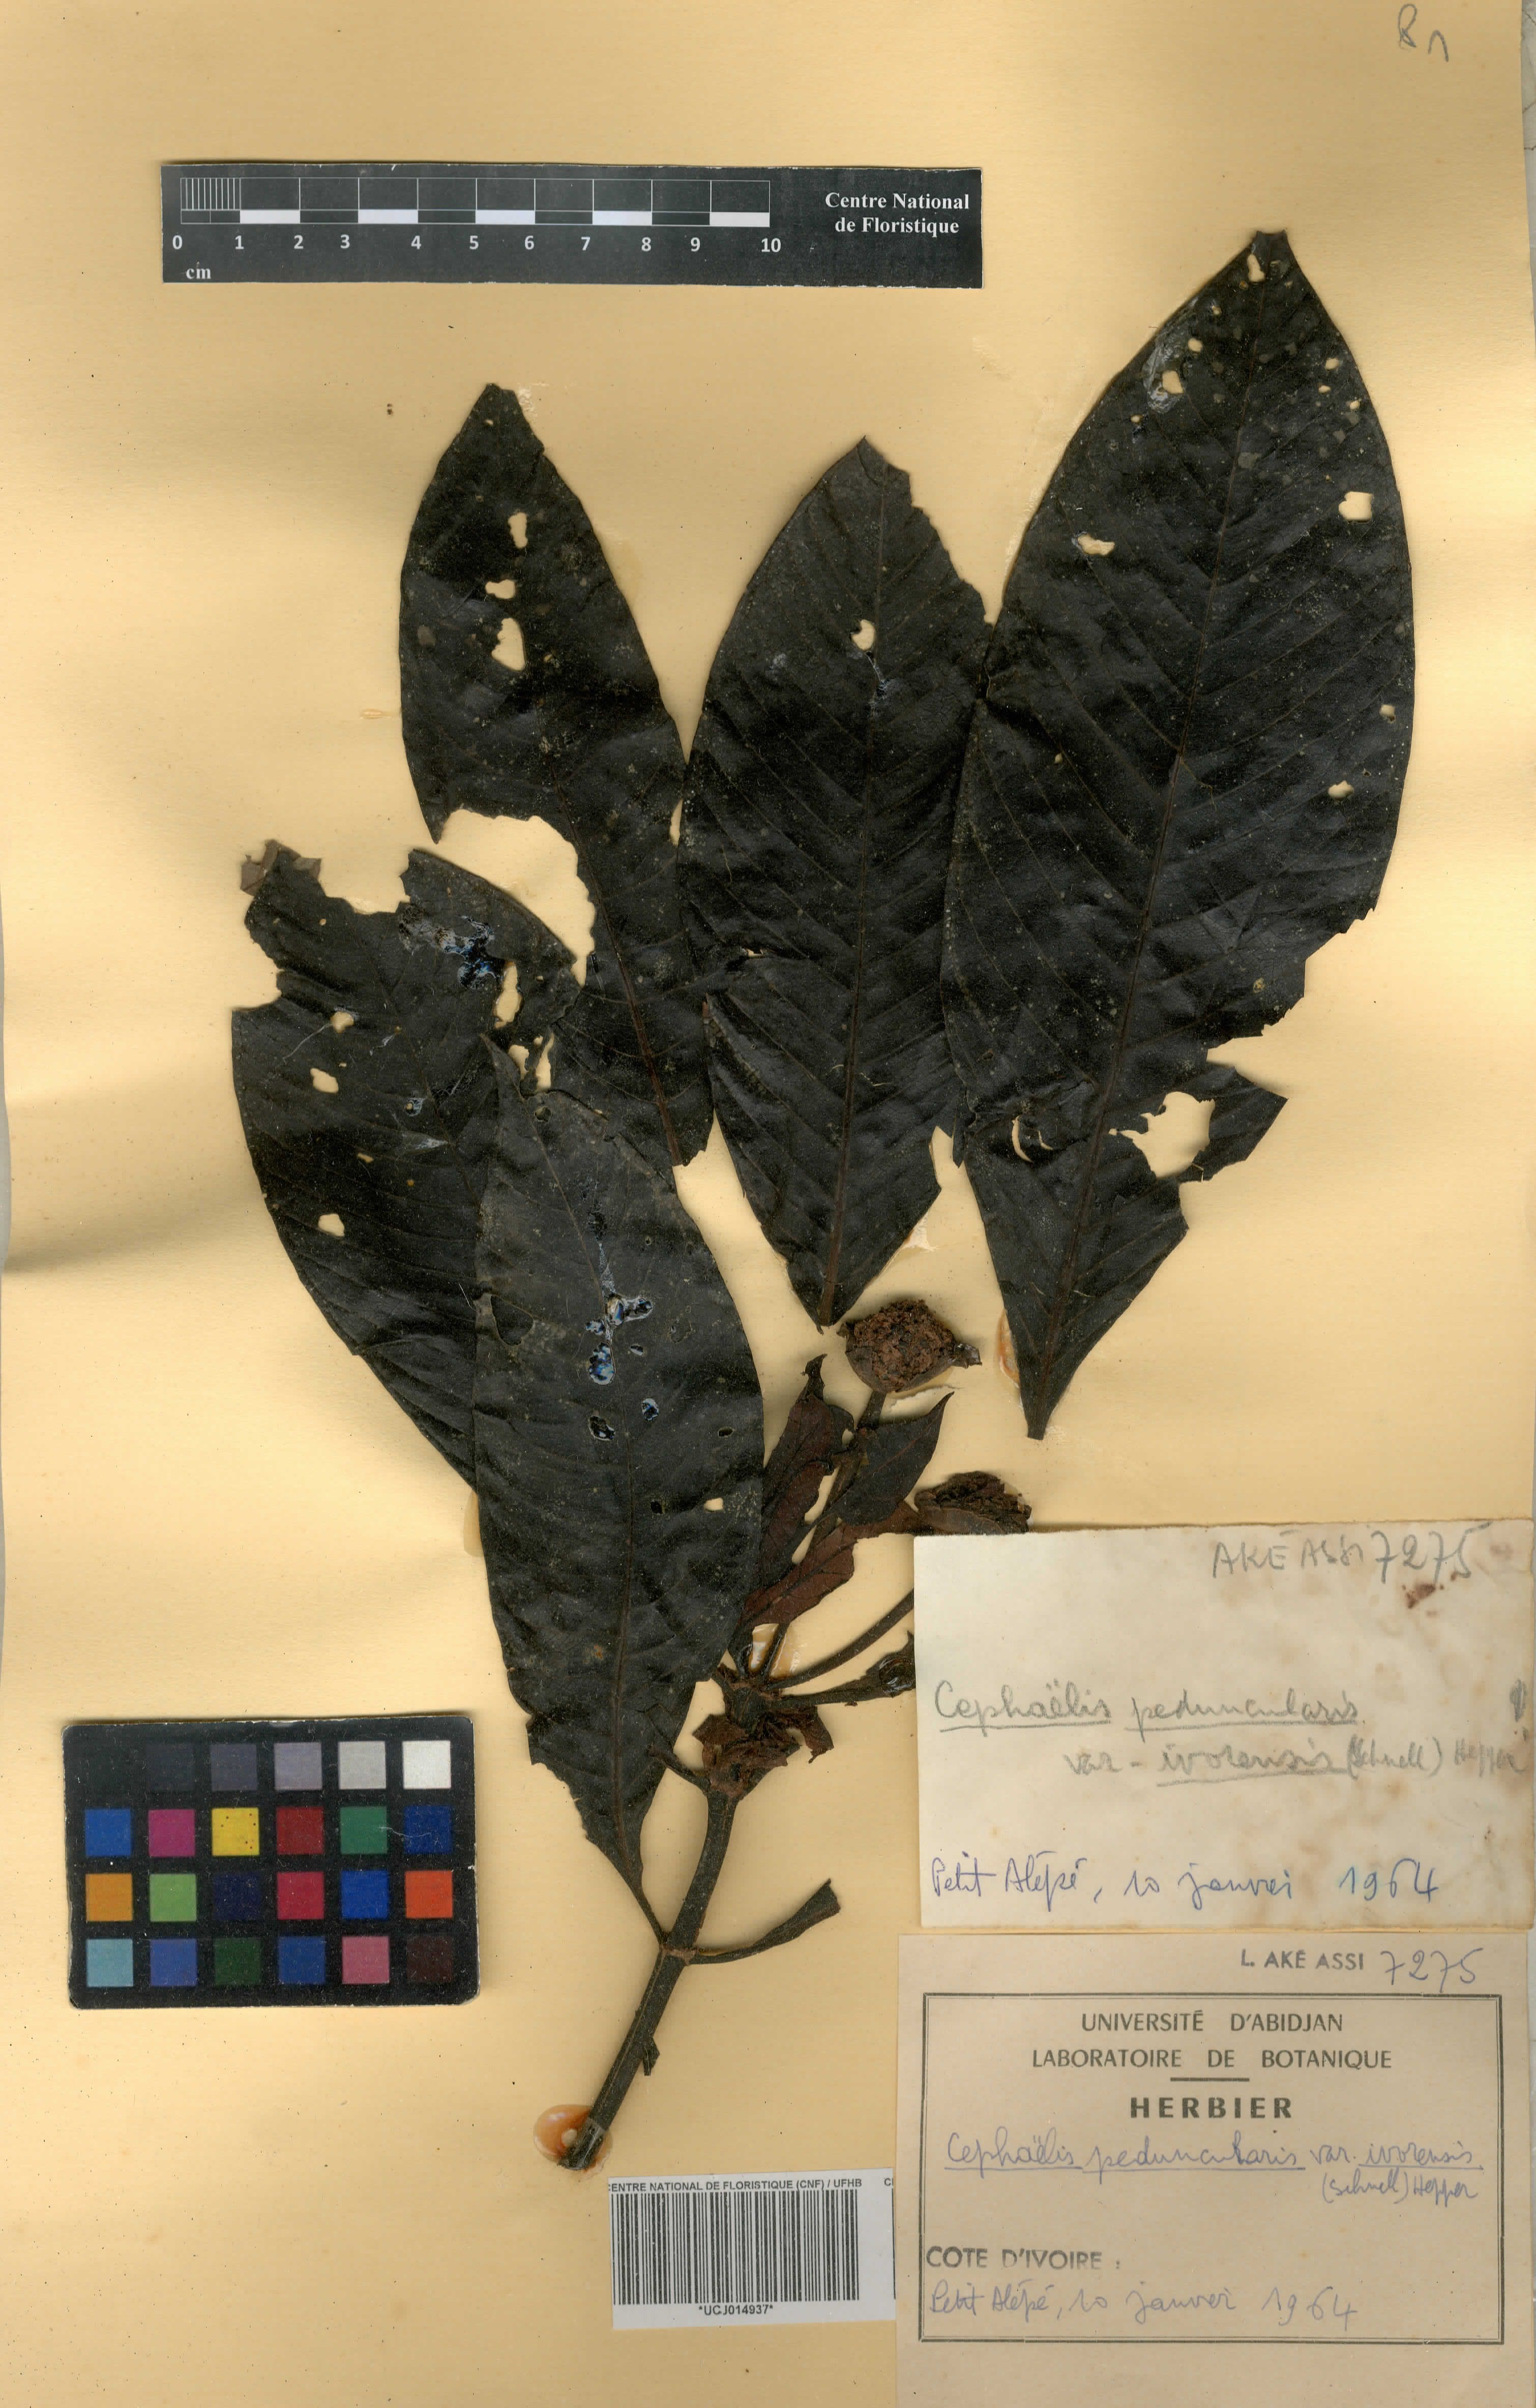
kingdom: Plantae
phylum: Tracheophyta
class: Magnoliopsida
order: Gentianales
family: Rubiaceae
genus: Psychotria
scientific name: Psychotria peduncularis
